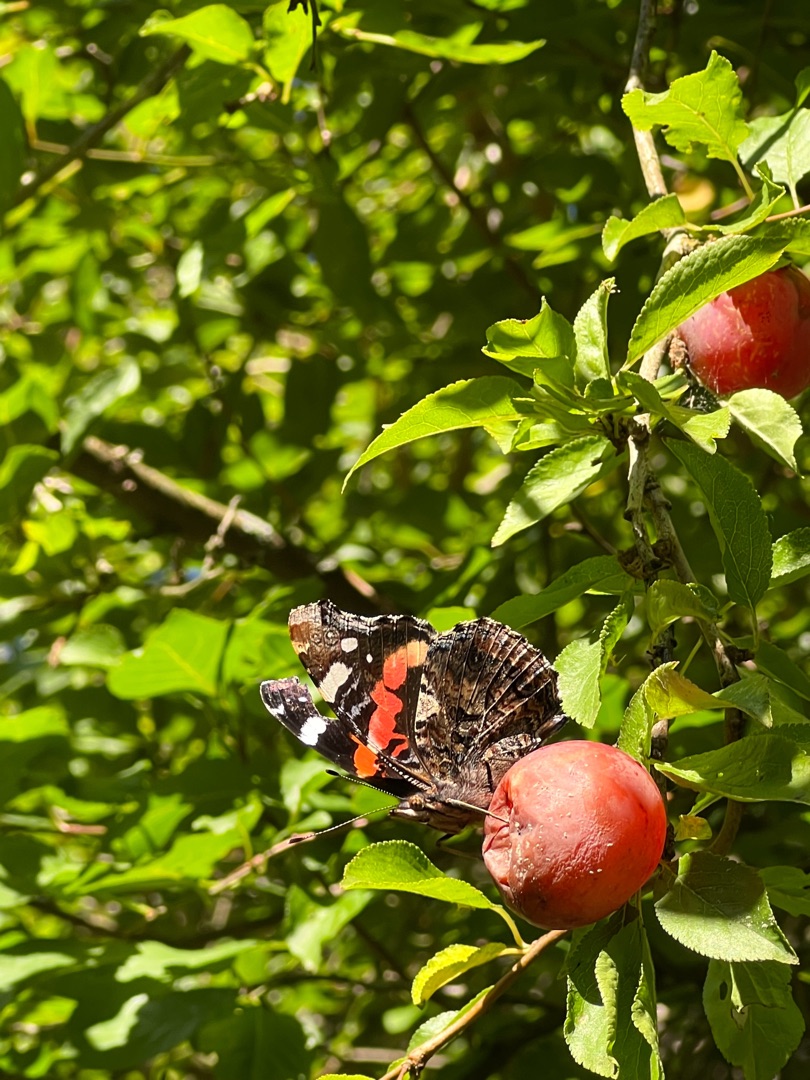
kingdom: Animalia
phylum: Arthropoda
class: Insecta
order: Lepidoptera
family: Nymphalidae
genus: Vanessa
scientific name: Vanessa atalanta
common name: Admiral
